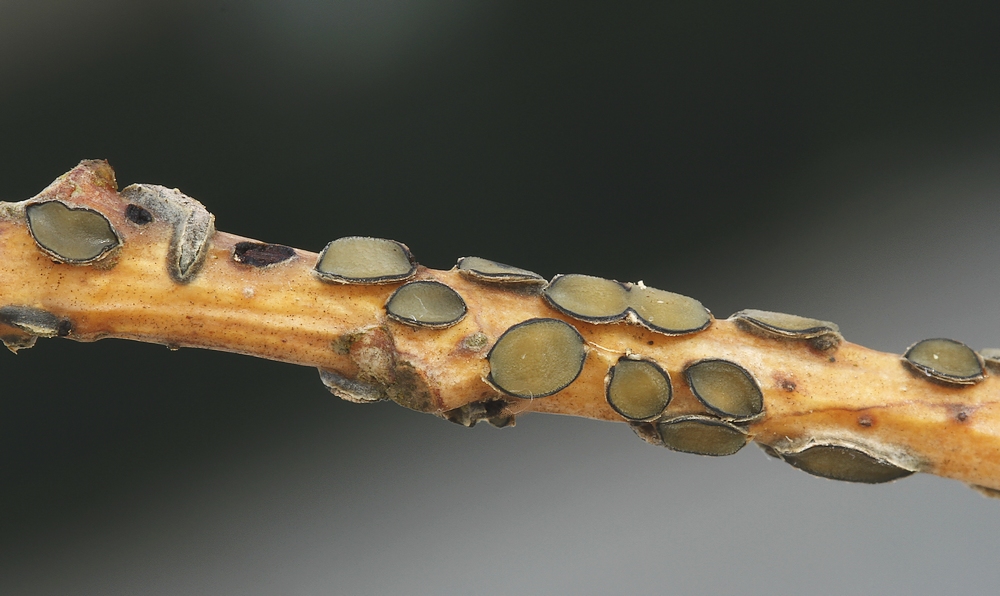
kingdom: Fungi
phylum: Ascomycota
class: Leotiomycetes
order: Rhytismatales
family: Rhytismataceae
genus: Colpoma
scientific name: Colpoma quercinum
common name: ege-sprækkeskive
